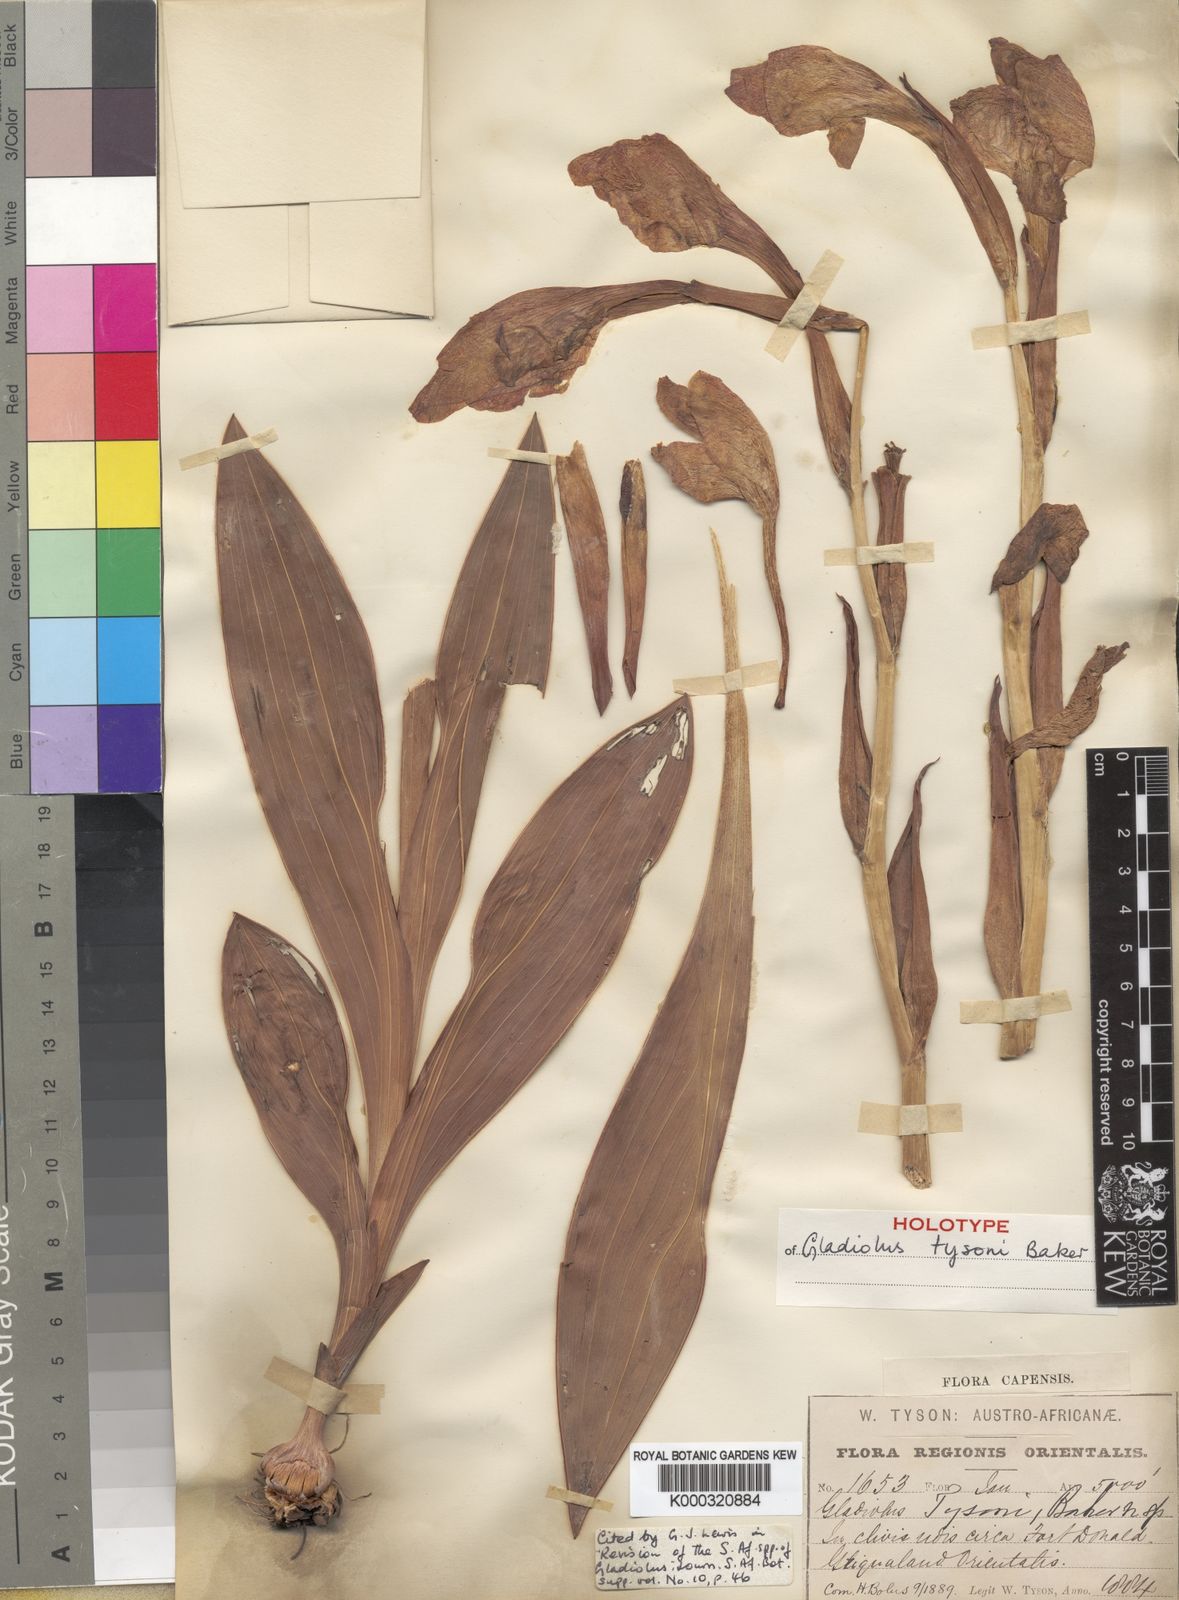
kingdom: Plantae
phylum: Tracheophyta
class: Liliopsida
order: Asparagales
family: Iridaceae
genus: Gladiolus
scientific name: Gladiolus dalenii
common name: Cornflag
